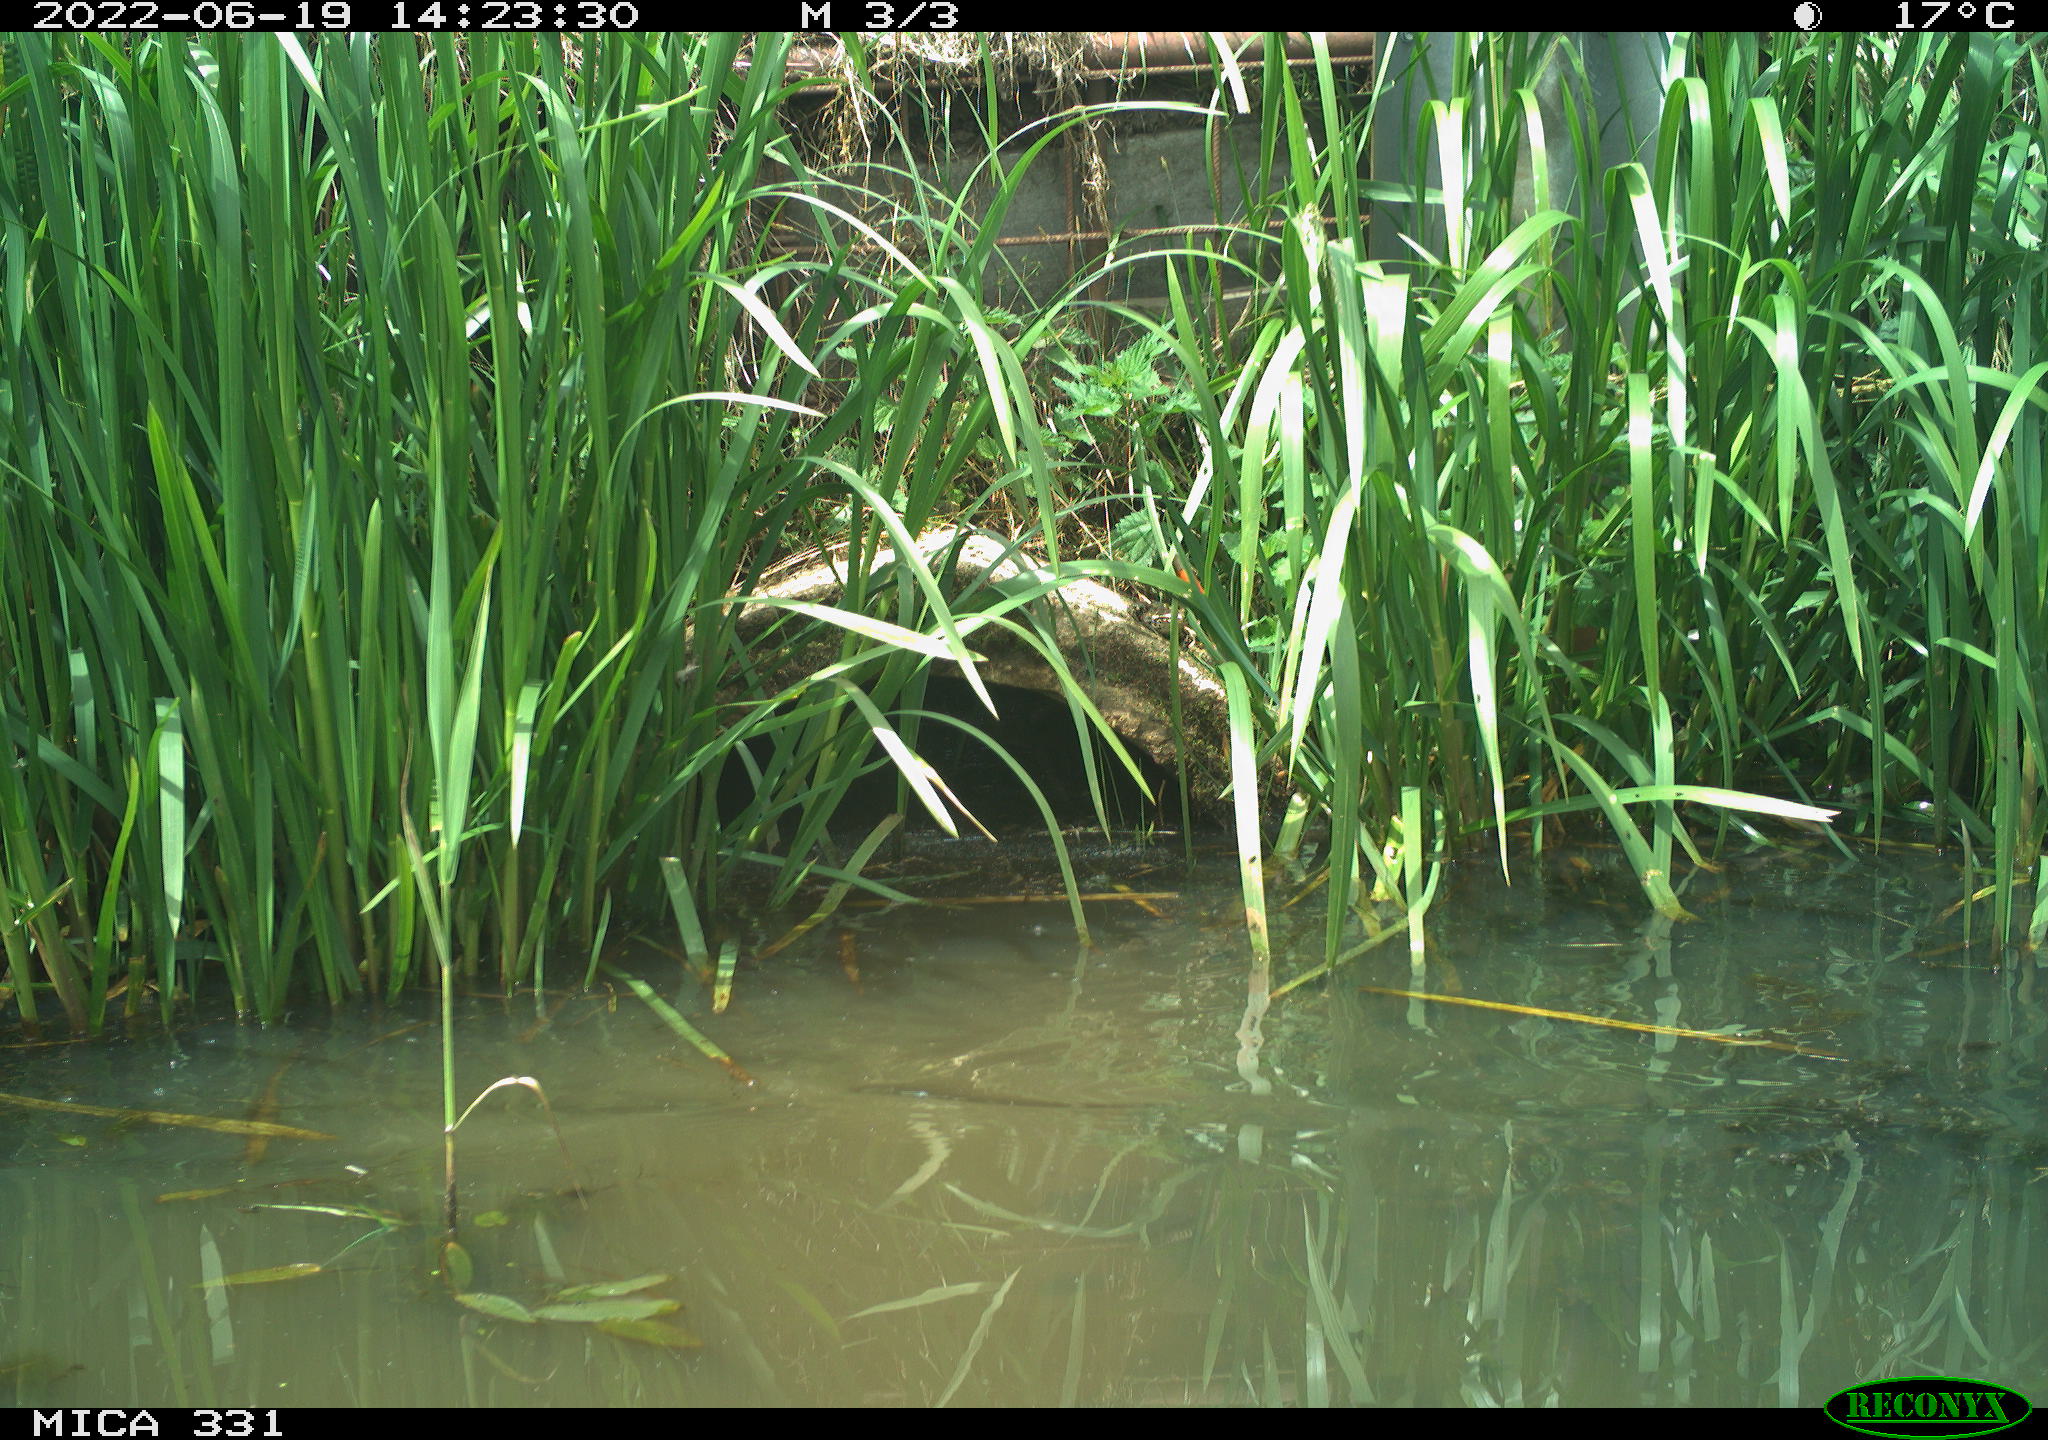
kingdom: Animalia
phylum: Chordata
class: Aves
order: Anseriformes
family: Anatidae
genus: Anas
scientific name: Anas platyrhynchos
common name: Mallard
